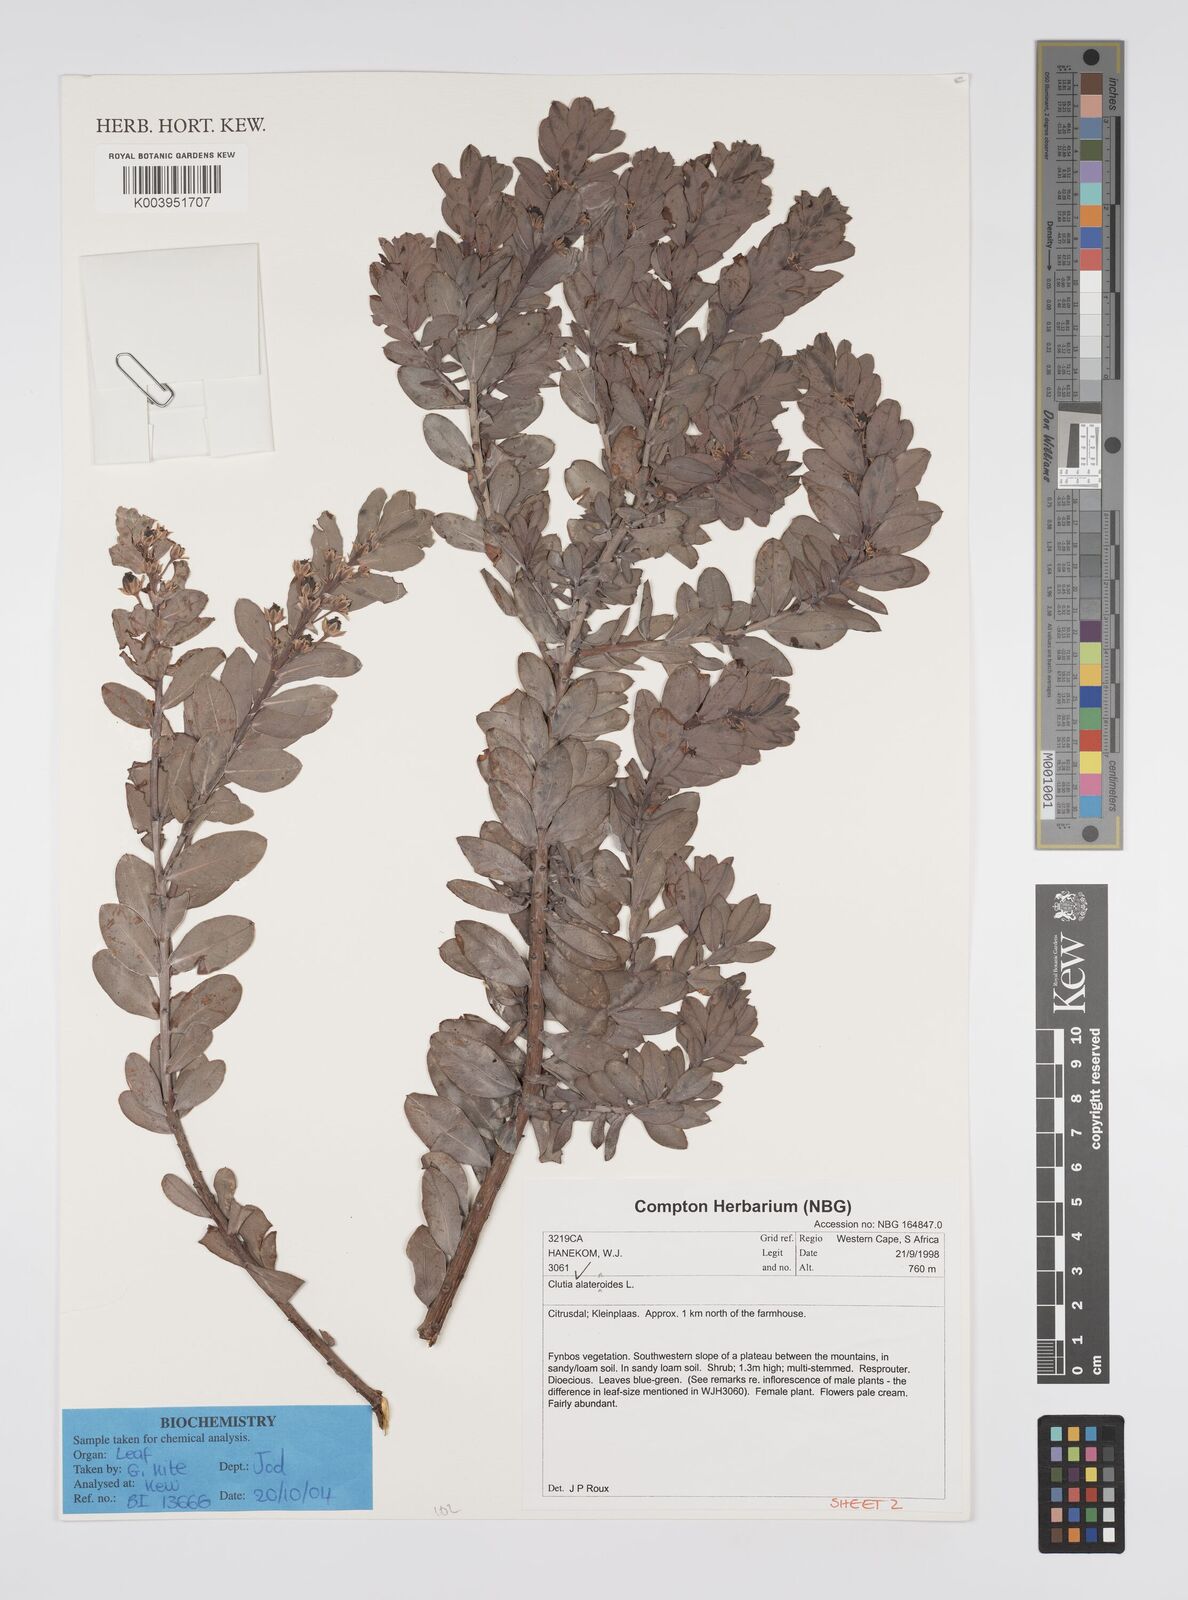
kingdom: Plantae
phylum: Tracheophyta
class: Magnoliopsida
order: Malpighiales
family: Peraceae
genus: Clutia
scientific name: Clutia alaternoides
